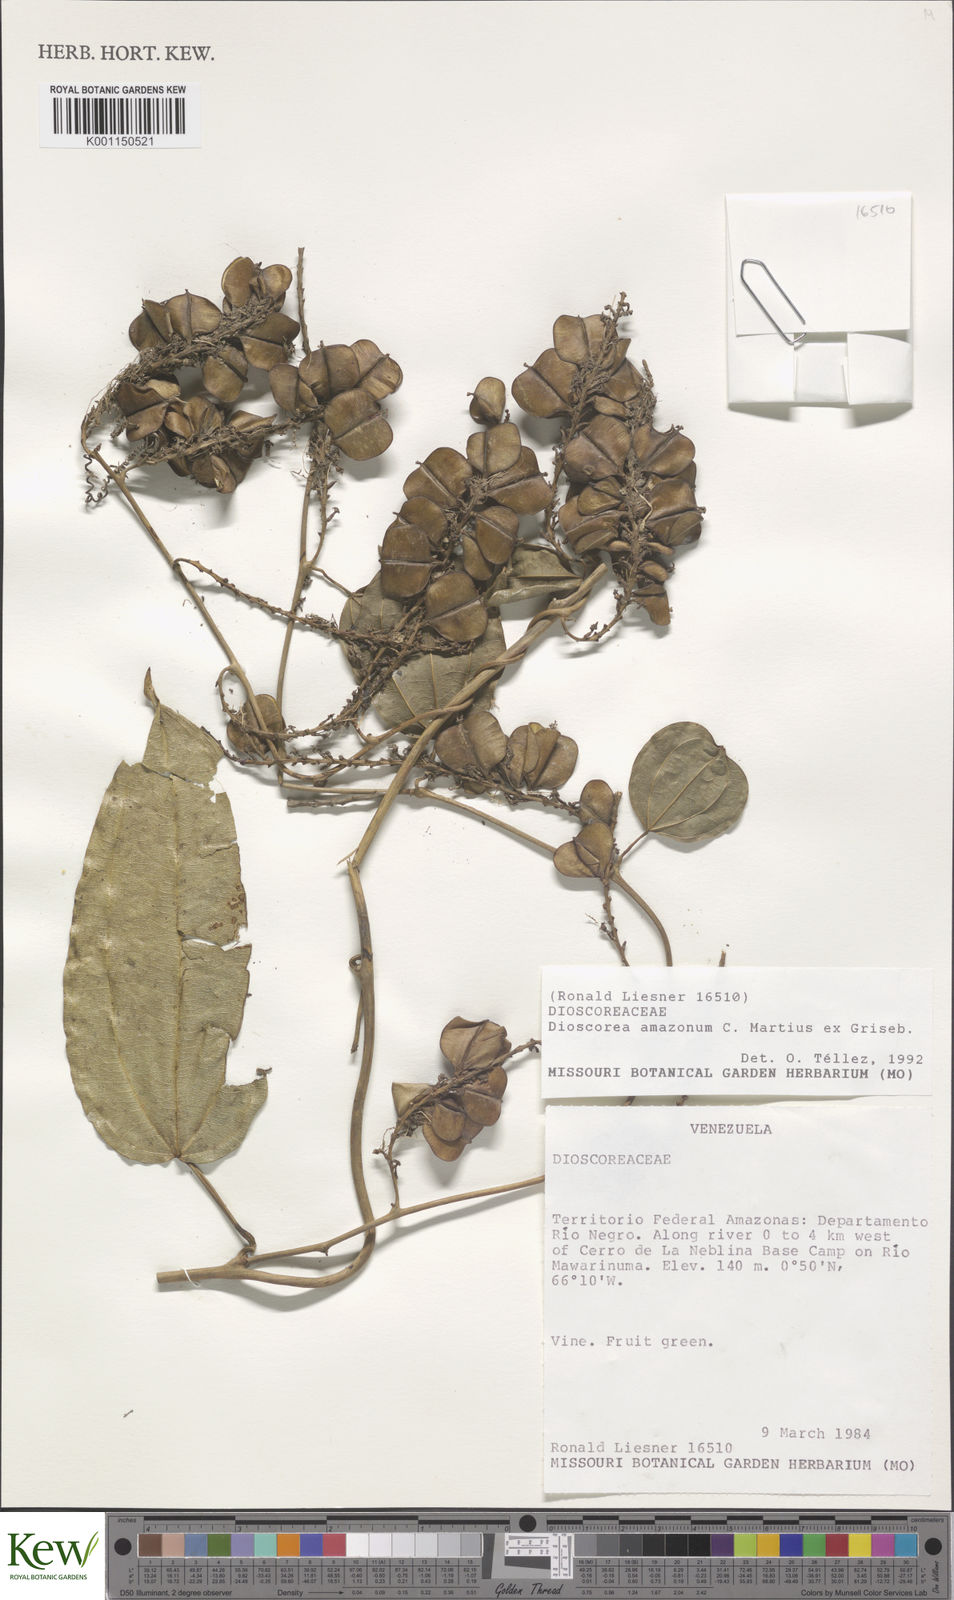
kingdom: Plantae
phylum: Tracheophyta
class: Liliopsida
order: Dioscoreales
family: Dioscoreaceae
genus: Dioscorea
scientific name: Dioscorea amazonum
